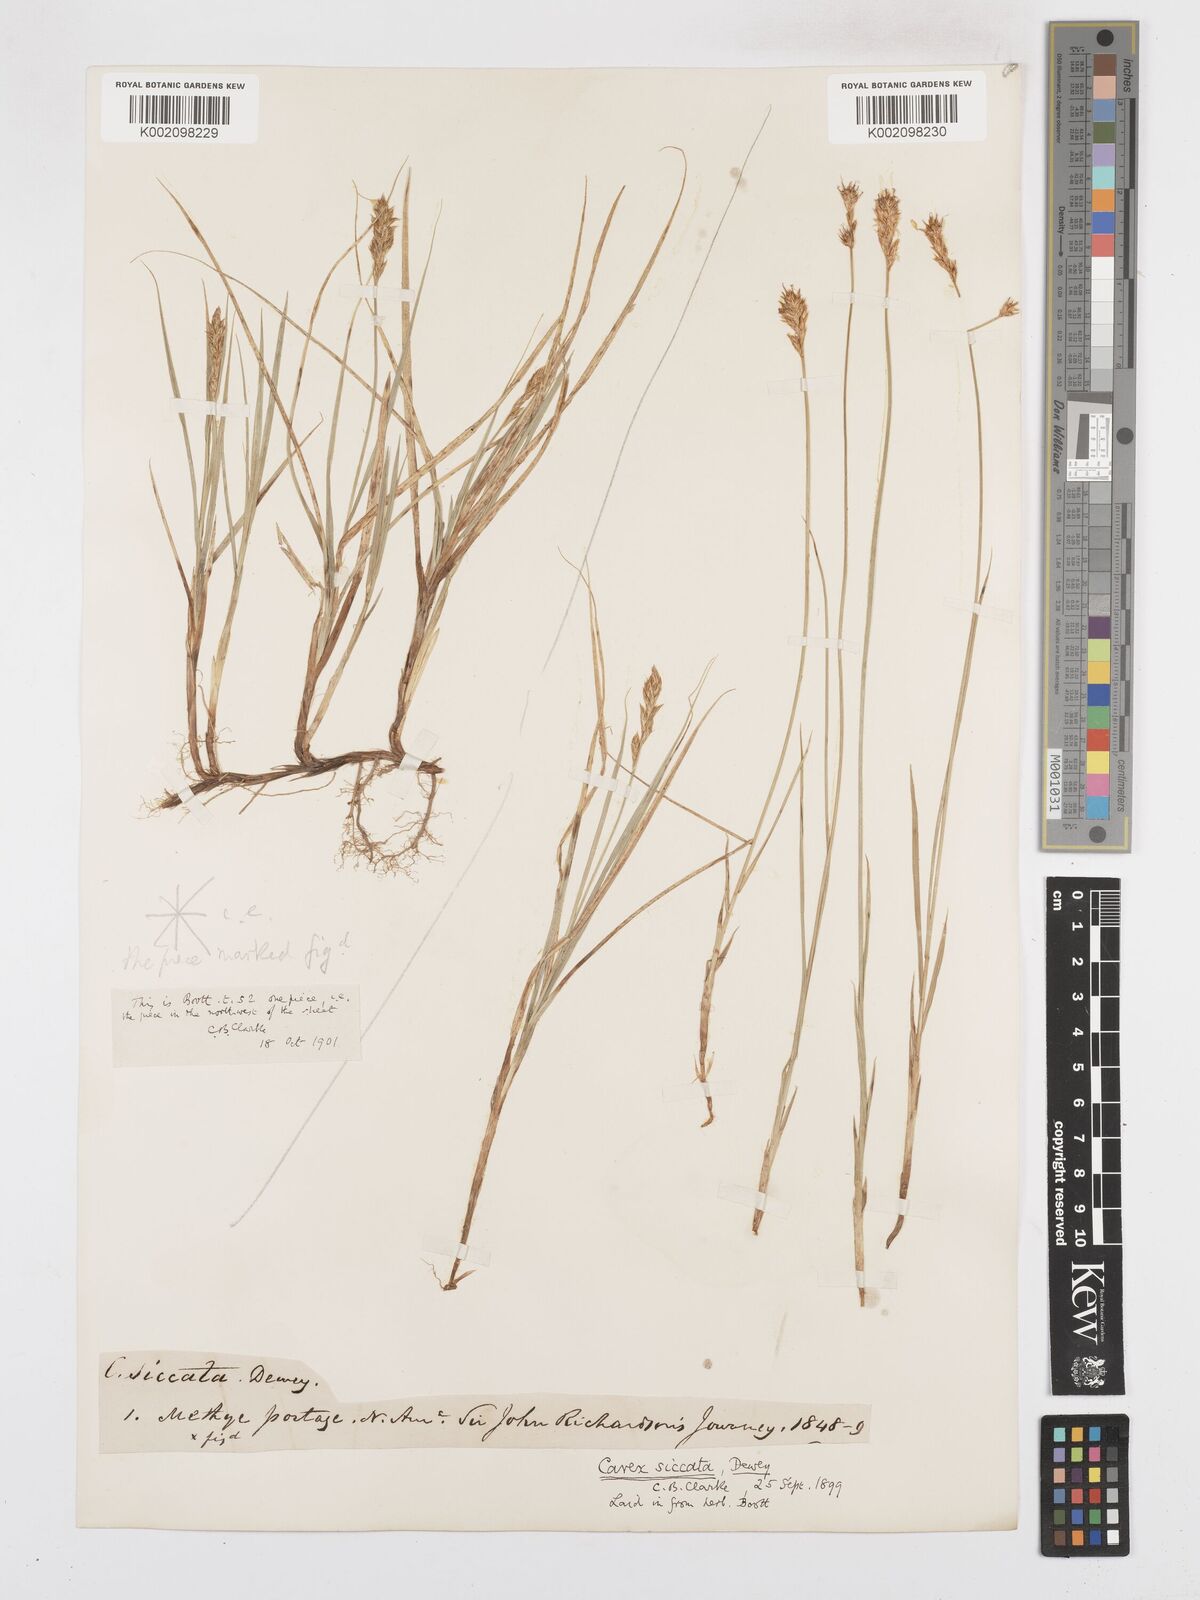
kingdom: Plantae
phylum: Tracheophyta
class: Liliopsida
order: Poales
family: Cyperaceae
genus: Carex
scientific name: Carex foenea
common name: Bronze sedge
